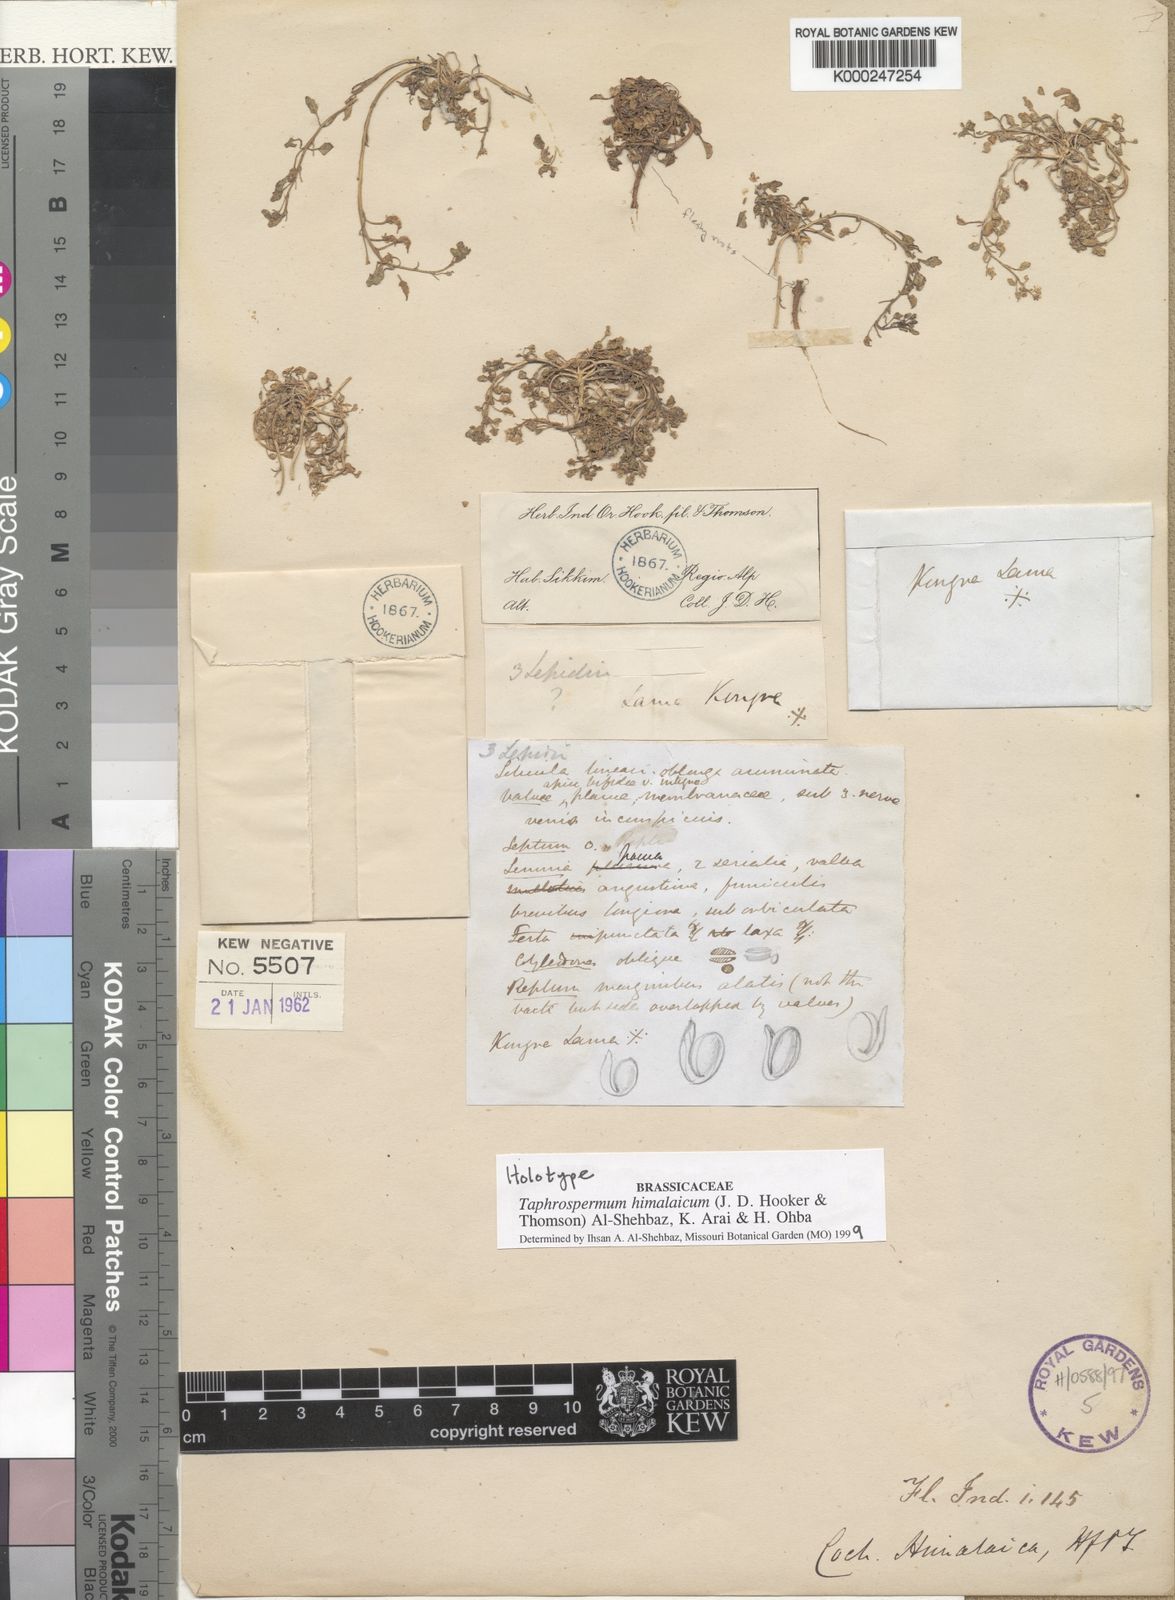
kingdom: Plantae
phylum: Tracheophyta
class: Magnoliopsida
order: Brassicales
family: Brassicaceae
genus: Eutrema
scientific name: Eutrema hookeri
